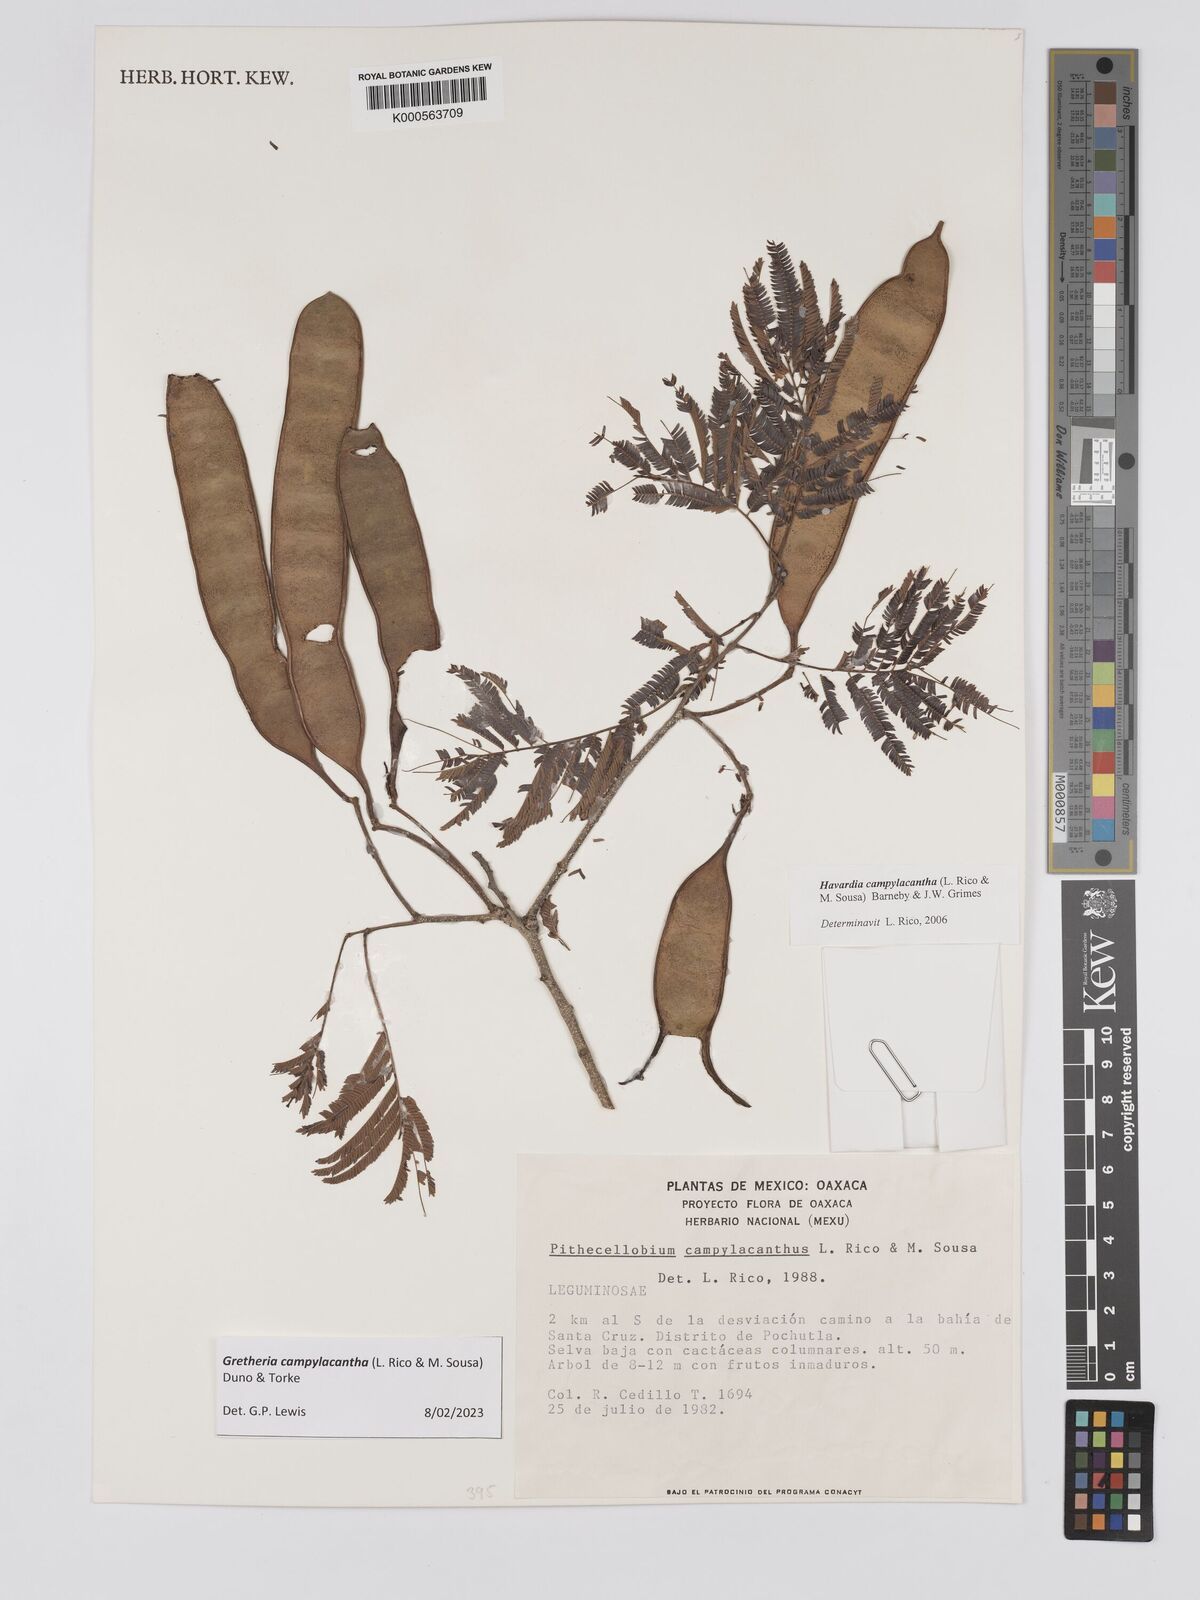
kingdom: Plantae
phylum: Tracheophyta
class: Magnoliopsida
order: Fabales
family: Fabaceae
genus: Havardia
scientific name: Havardia campylacantha
